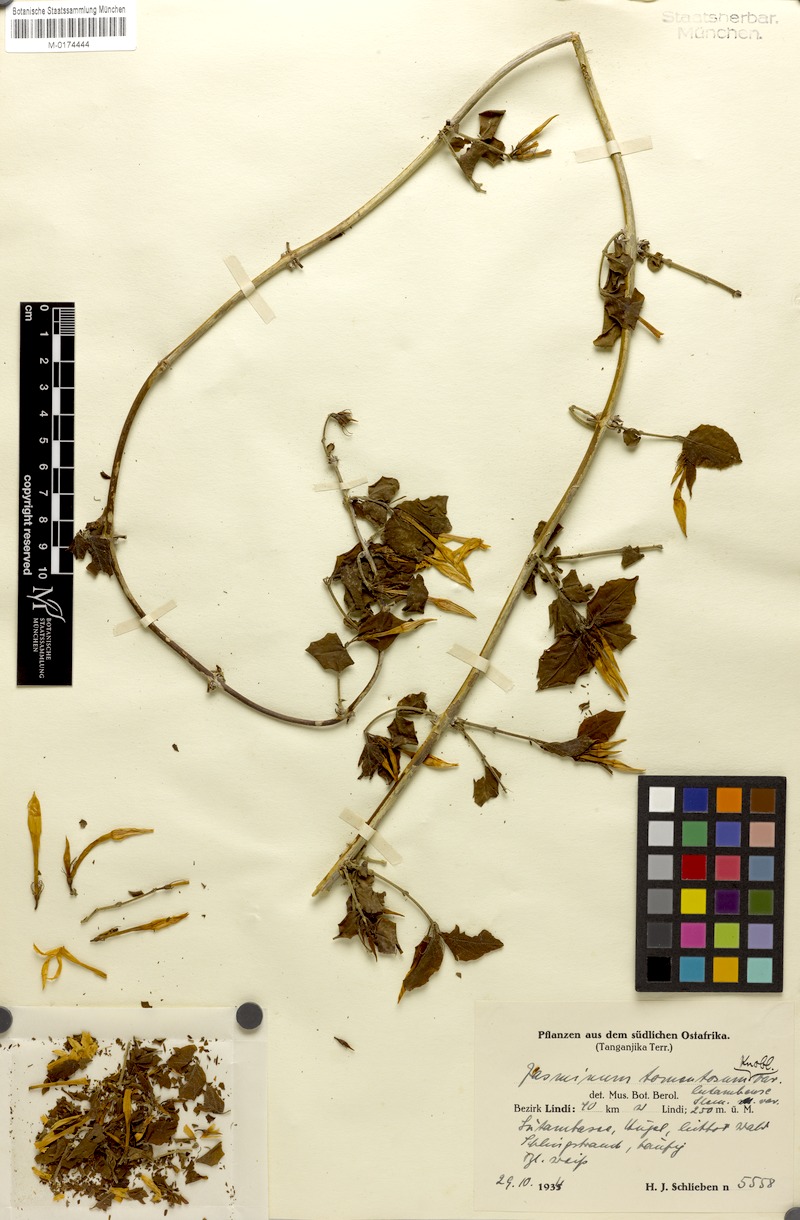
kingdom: Plantae
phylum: Tracheophyta
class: Magnoliopsida
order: Lamiales
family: Oleaceae
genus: Jasminum
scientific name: Jasminum stenolobum
